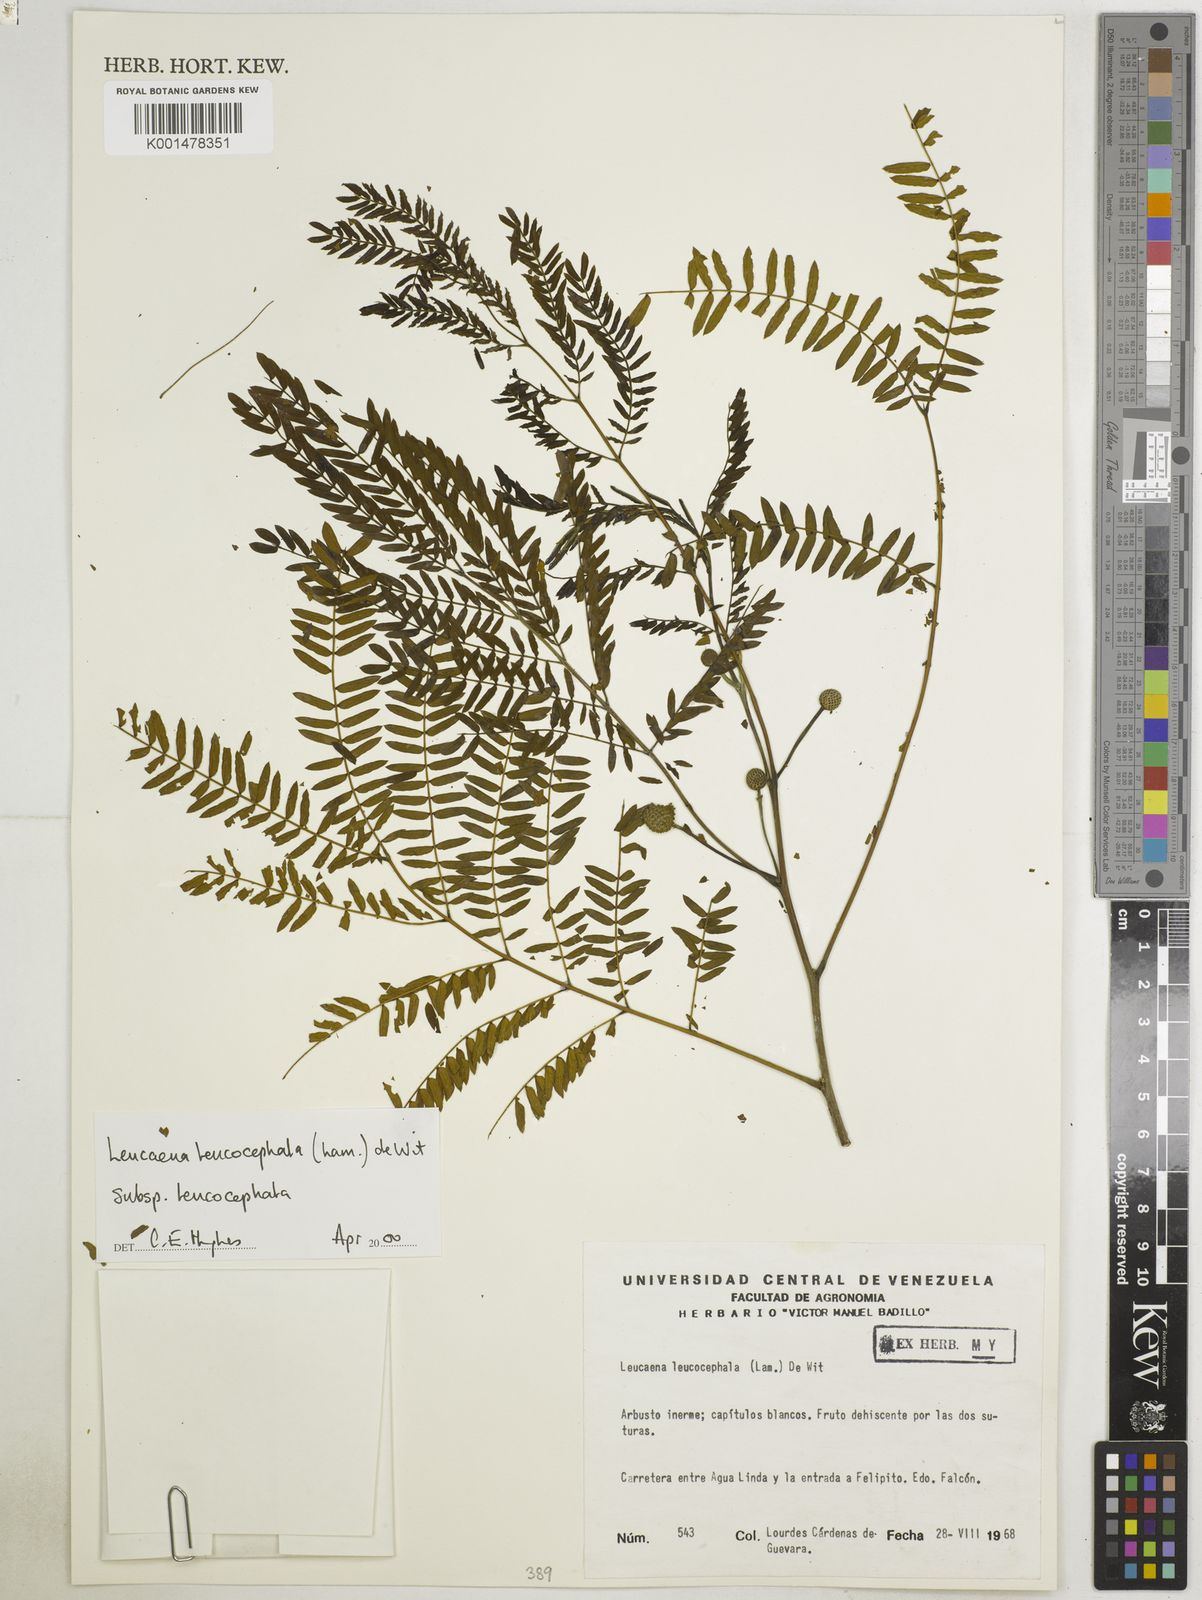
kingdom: Plantae
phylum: Tracheophyta
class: Magnoliopsida
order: Fabales
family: Fabaceae
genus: Leucaena
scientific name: Leucaena leucocephala
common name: White leadtree
